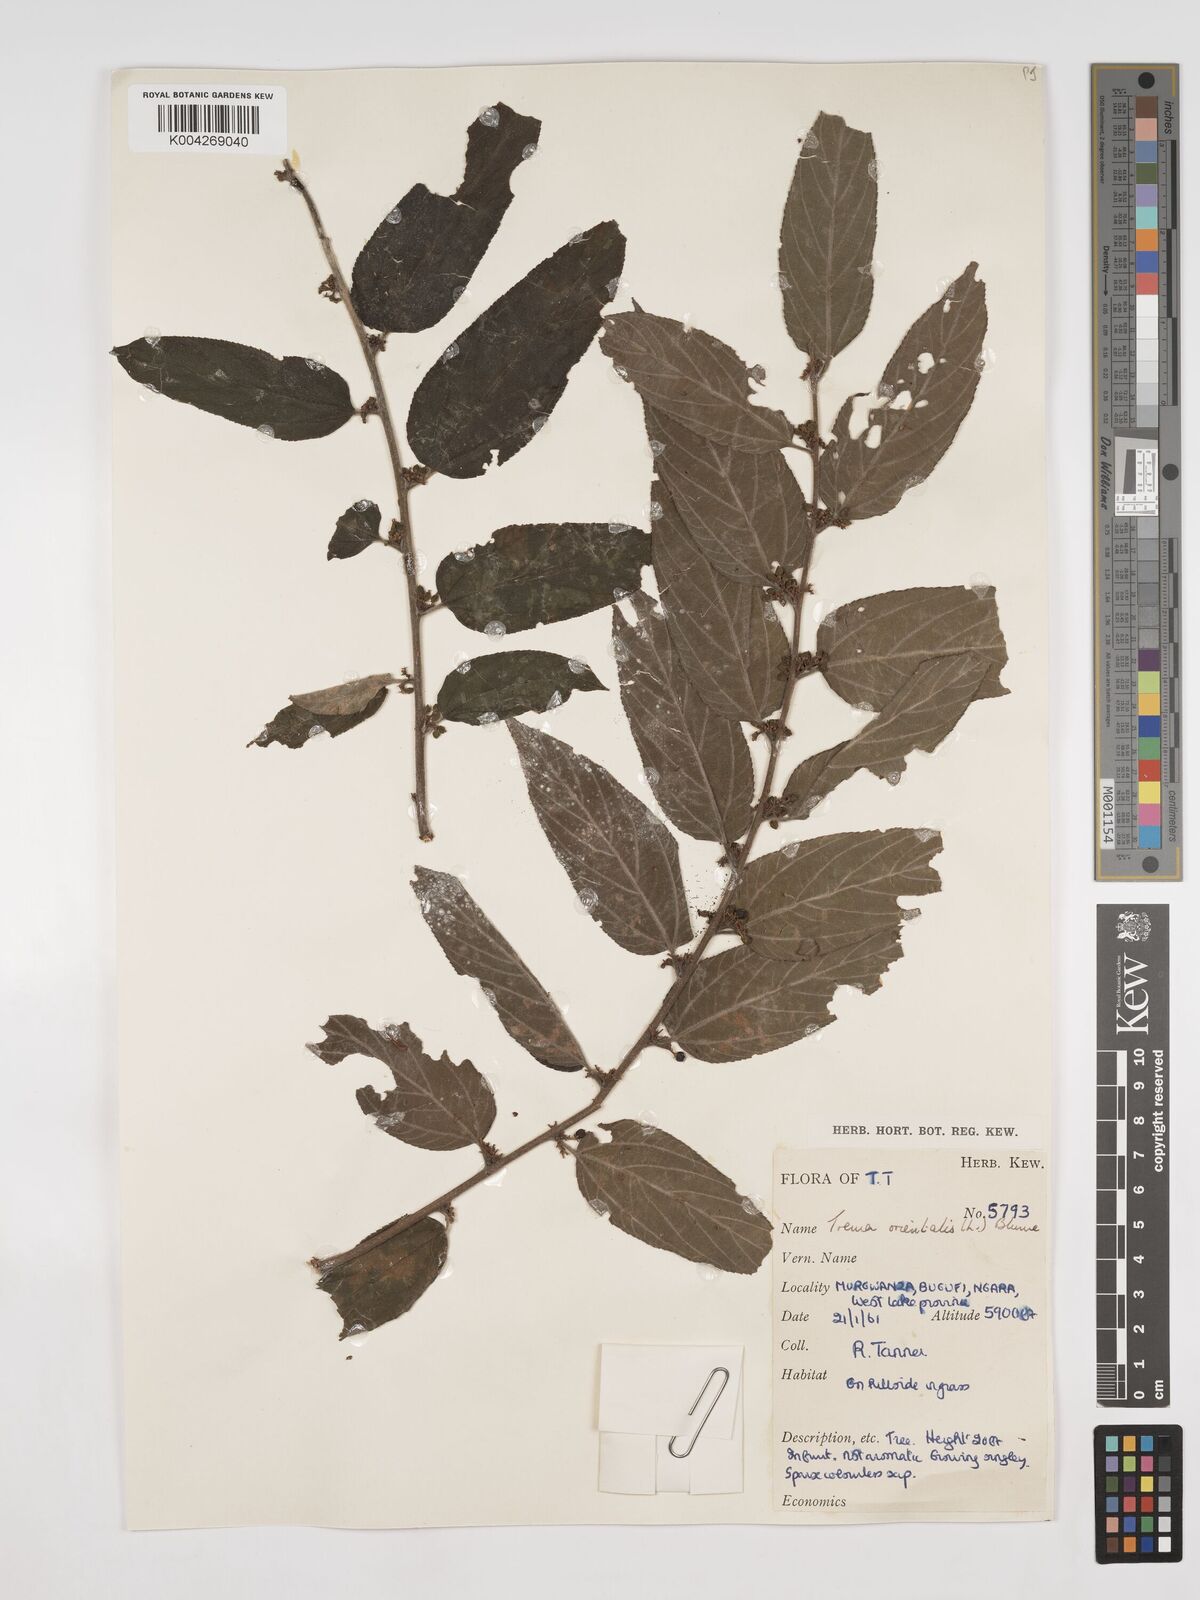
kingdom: Plantae
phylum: Tracheophyta
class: Magnoliopsida
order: Rosales
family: Cannabaceae
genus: Trema
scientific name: Trema orientale
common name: Indian charcoal tree
